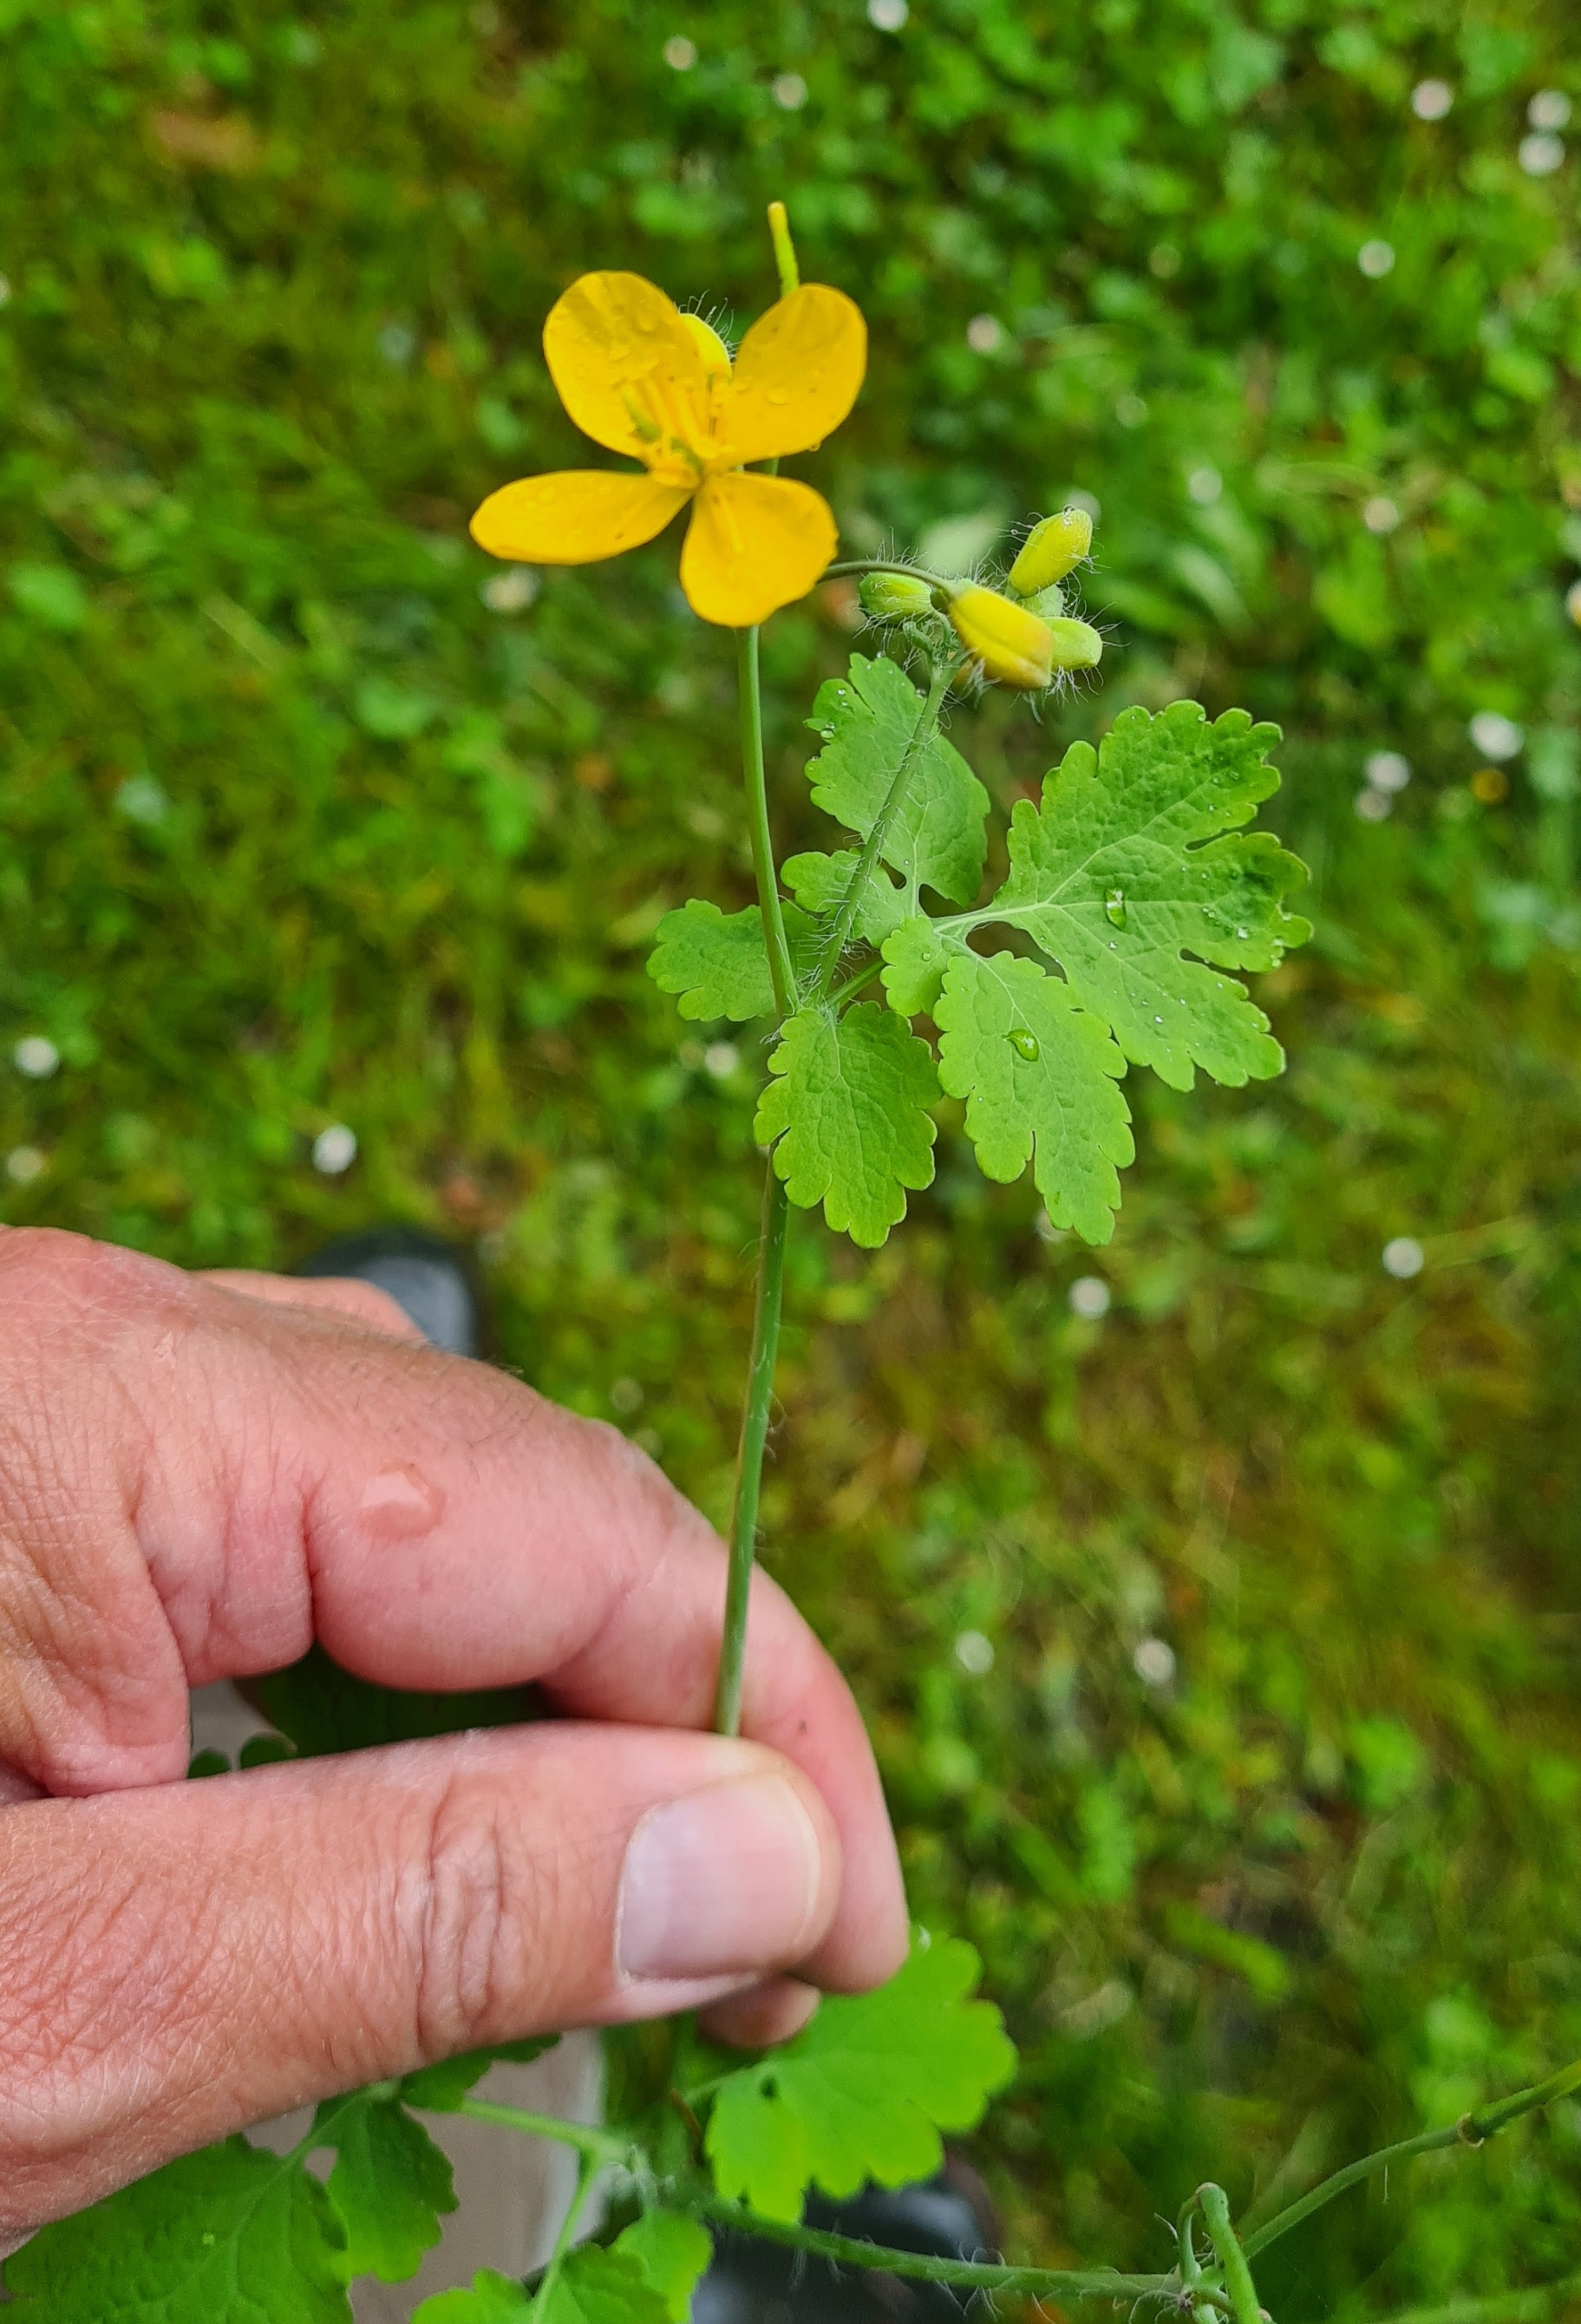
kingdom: Plantae
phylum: Tracheophyta
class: Magnoliopsida
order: Ranunculales
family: Papaveraceae
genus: Chelidonium
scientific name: Chelidonium majus
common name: Svaleurt
